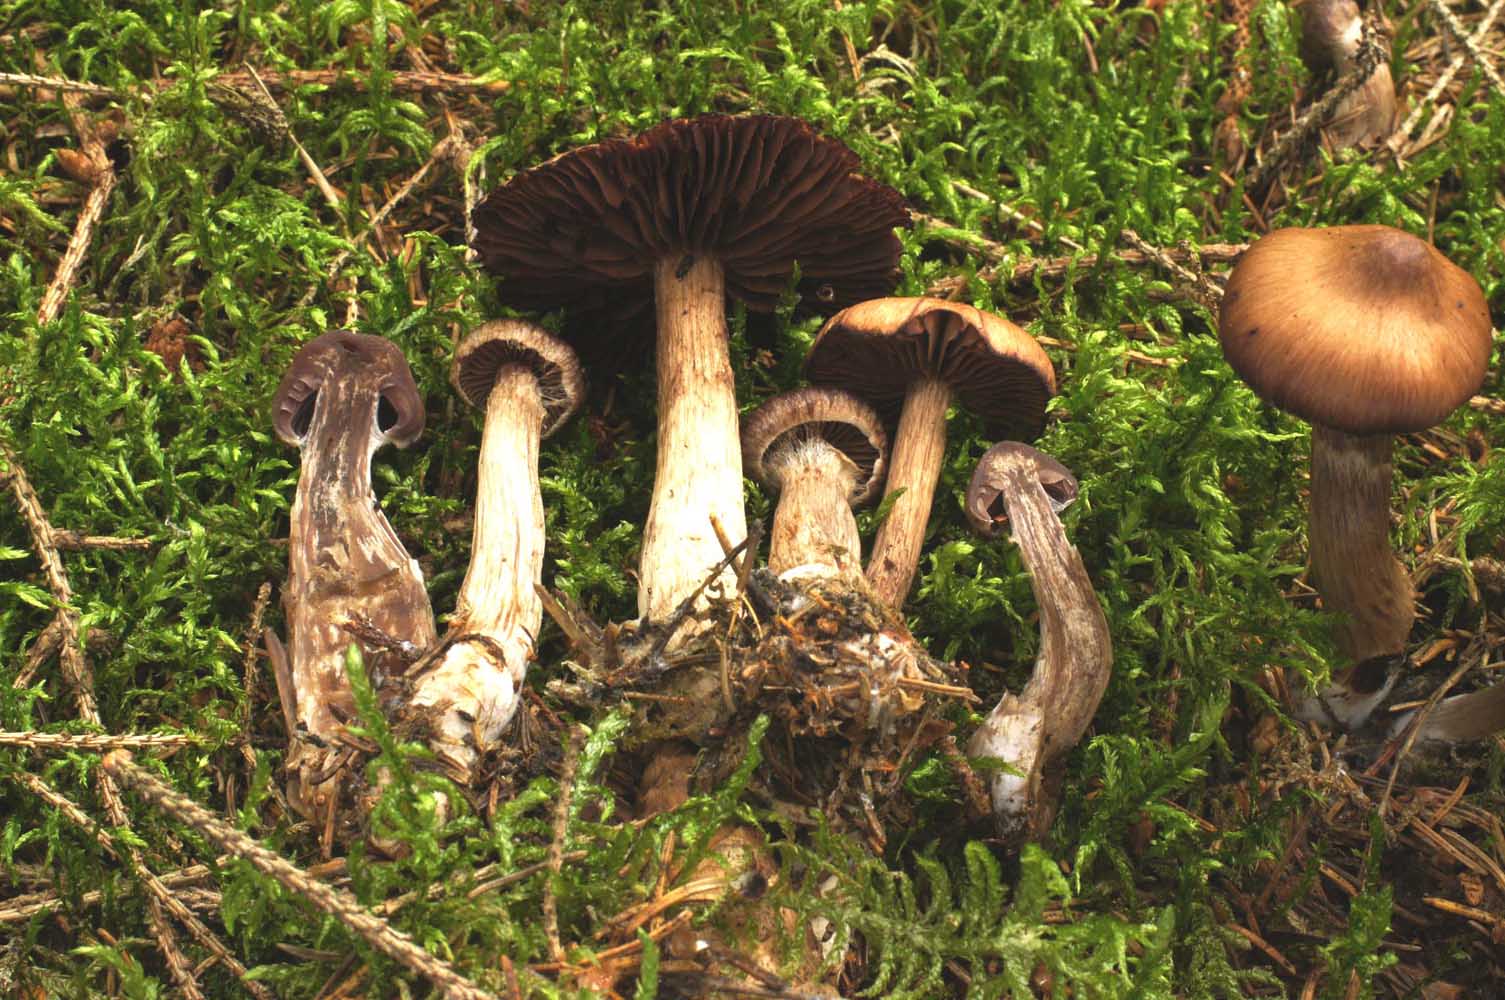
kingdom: Fungi
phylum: Basidiomycota
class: Agaricomycetes
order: Agaricales
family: Cortinariaceae
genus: Cortinarius
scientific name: Cortinarius brunneus
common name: sortbrun slørhat
